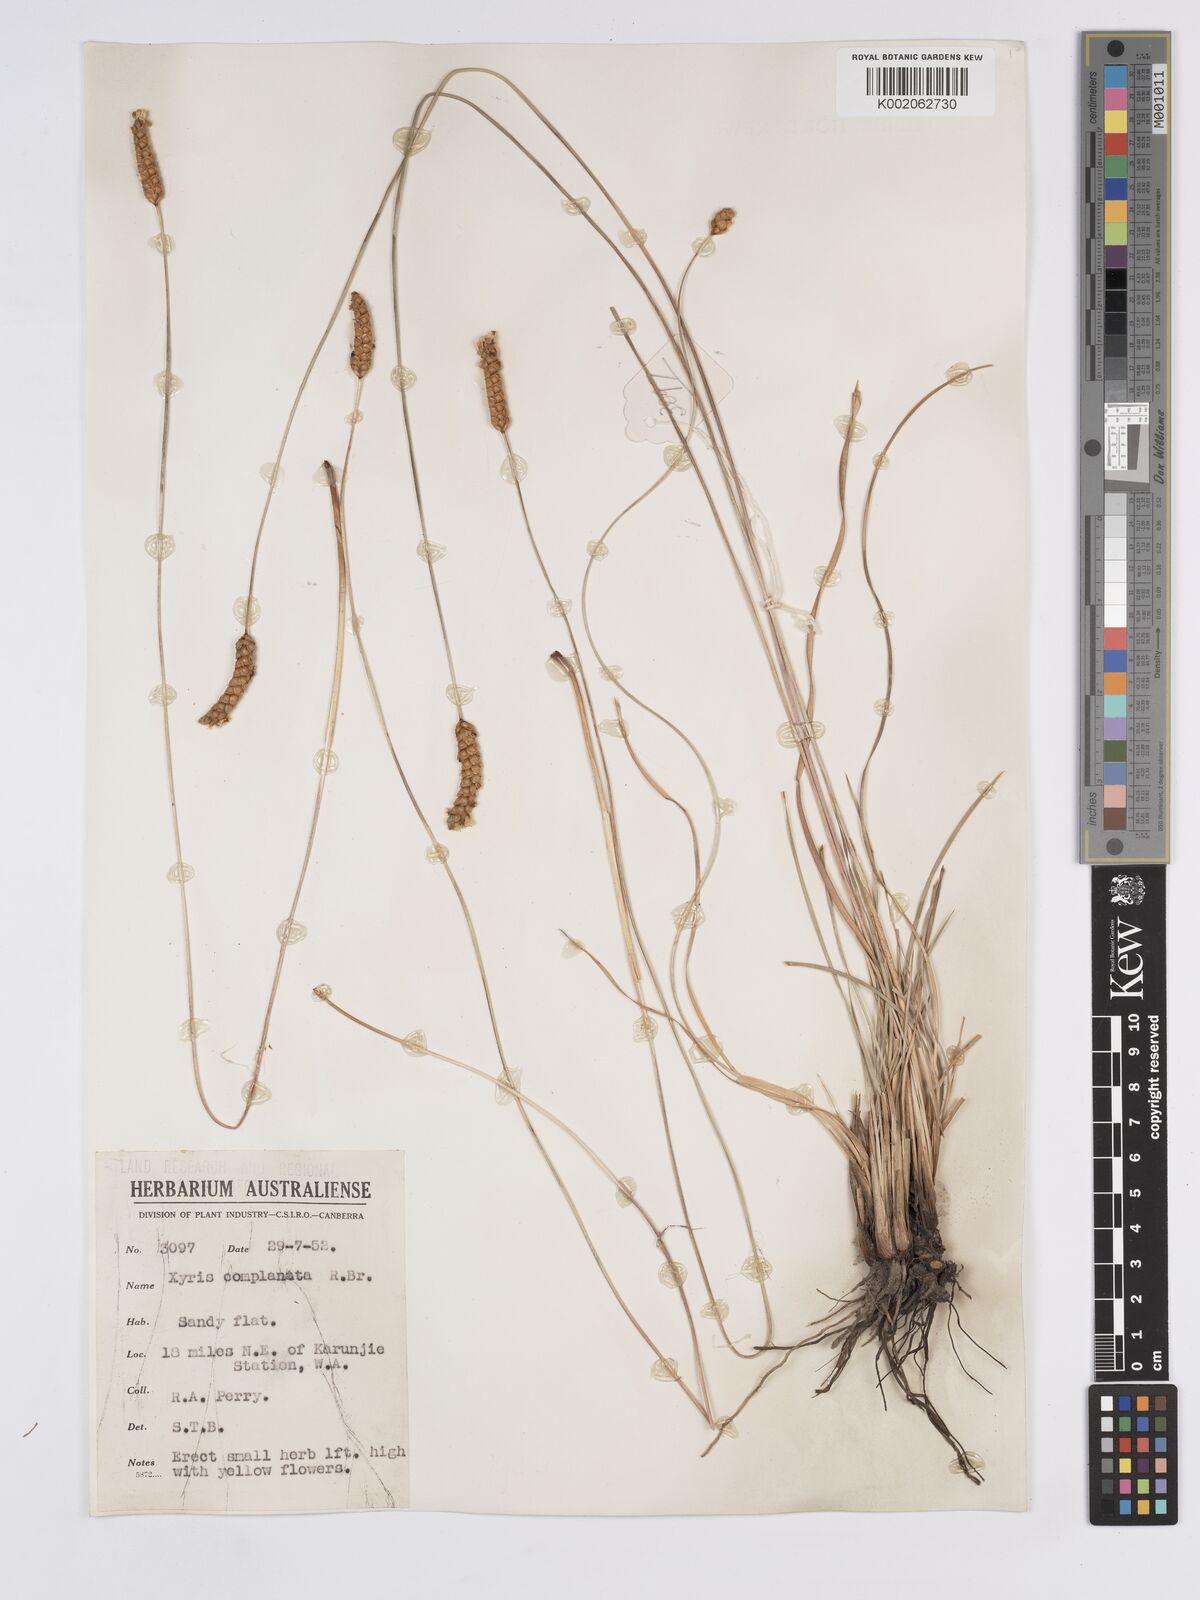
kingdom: Plantae
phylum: Tracheophyta
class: Liliopsida
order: Poales
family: Xyridaceae
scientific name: Xyridaceae
